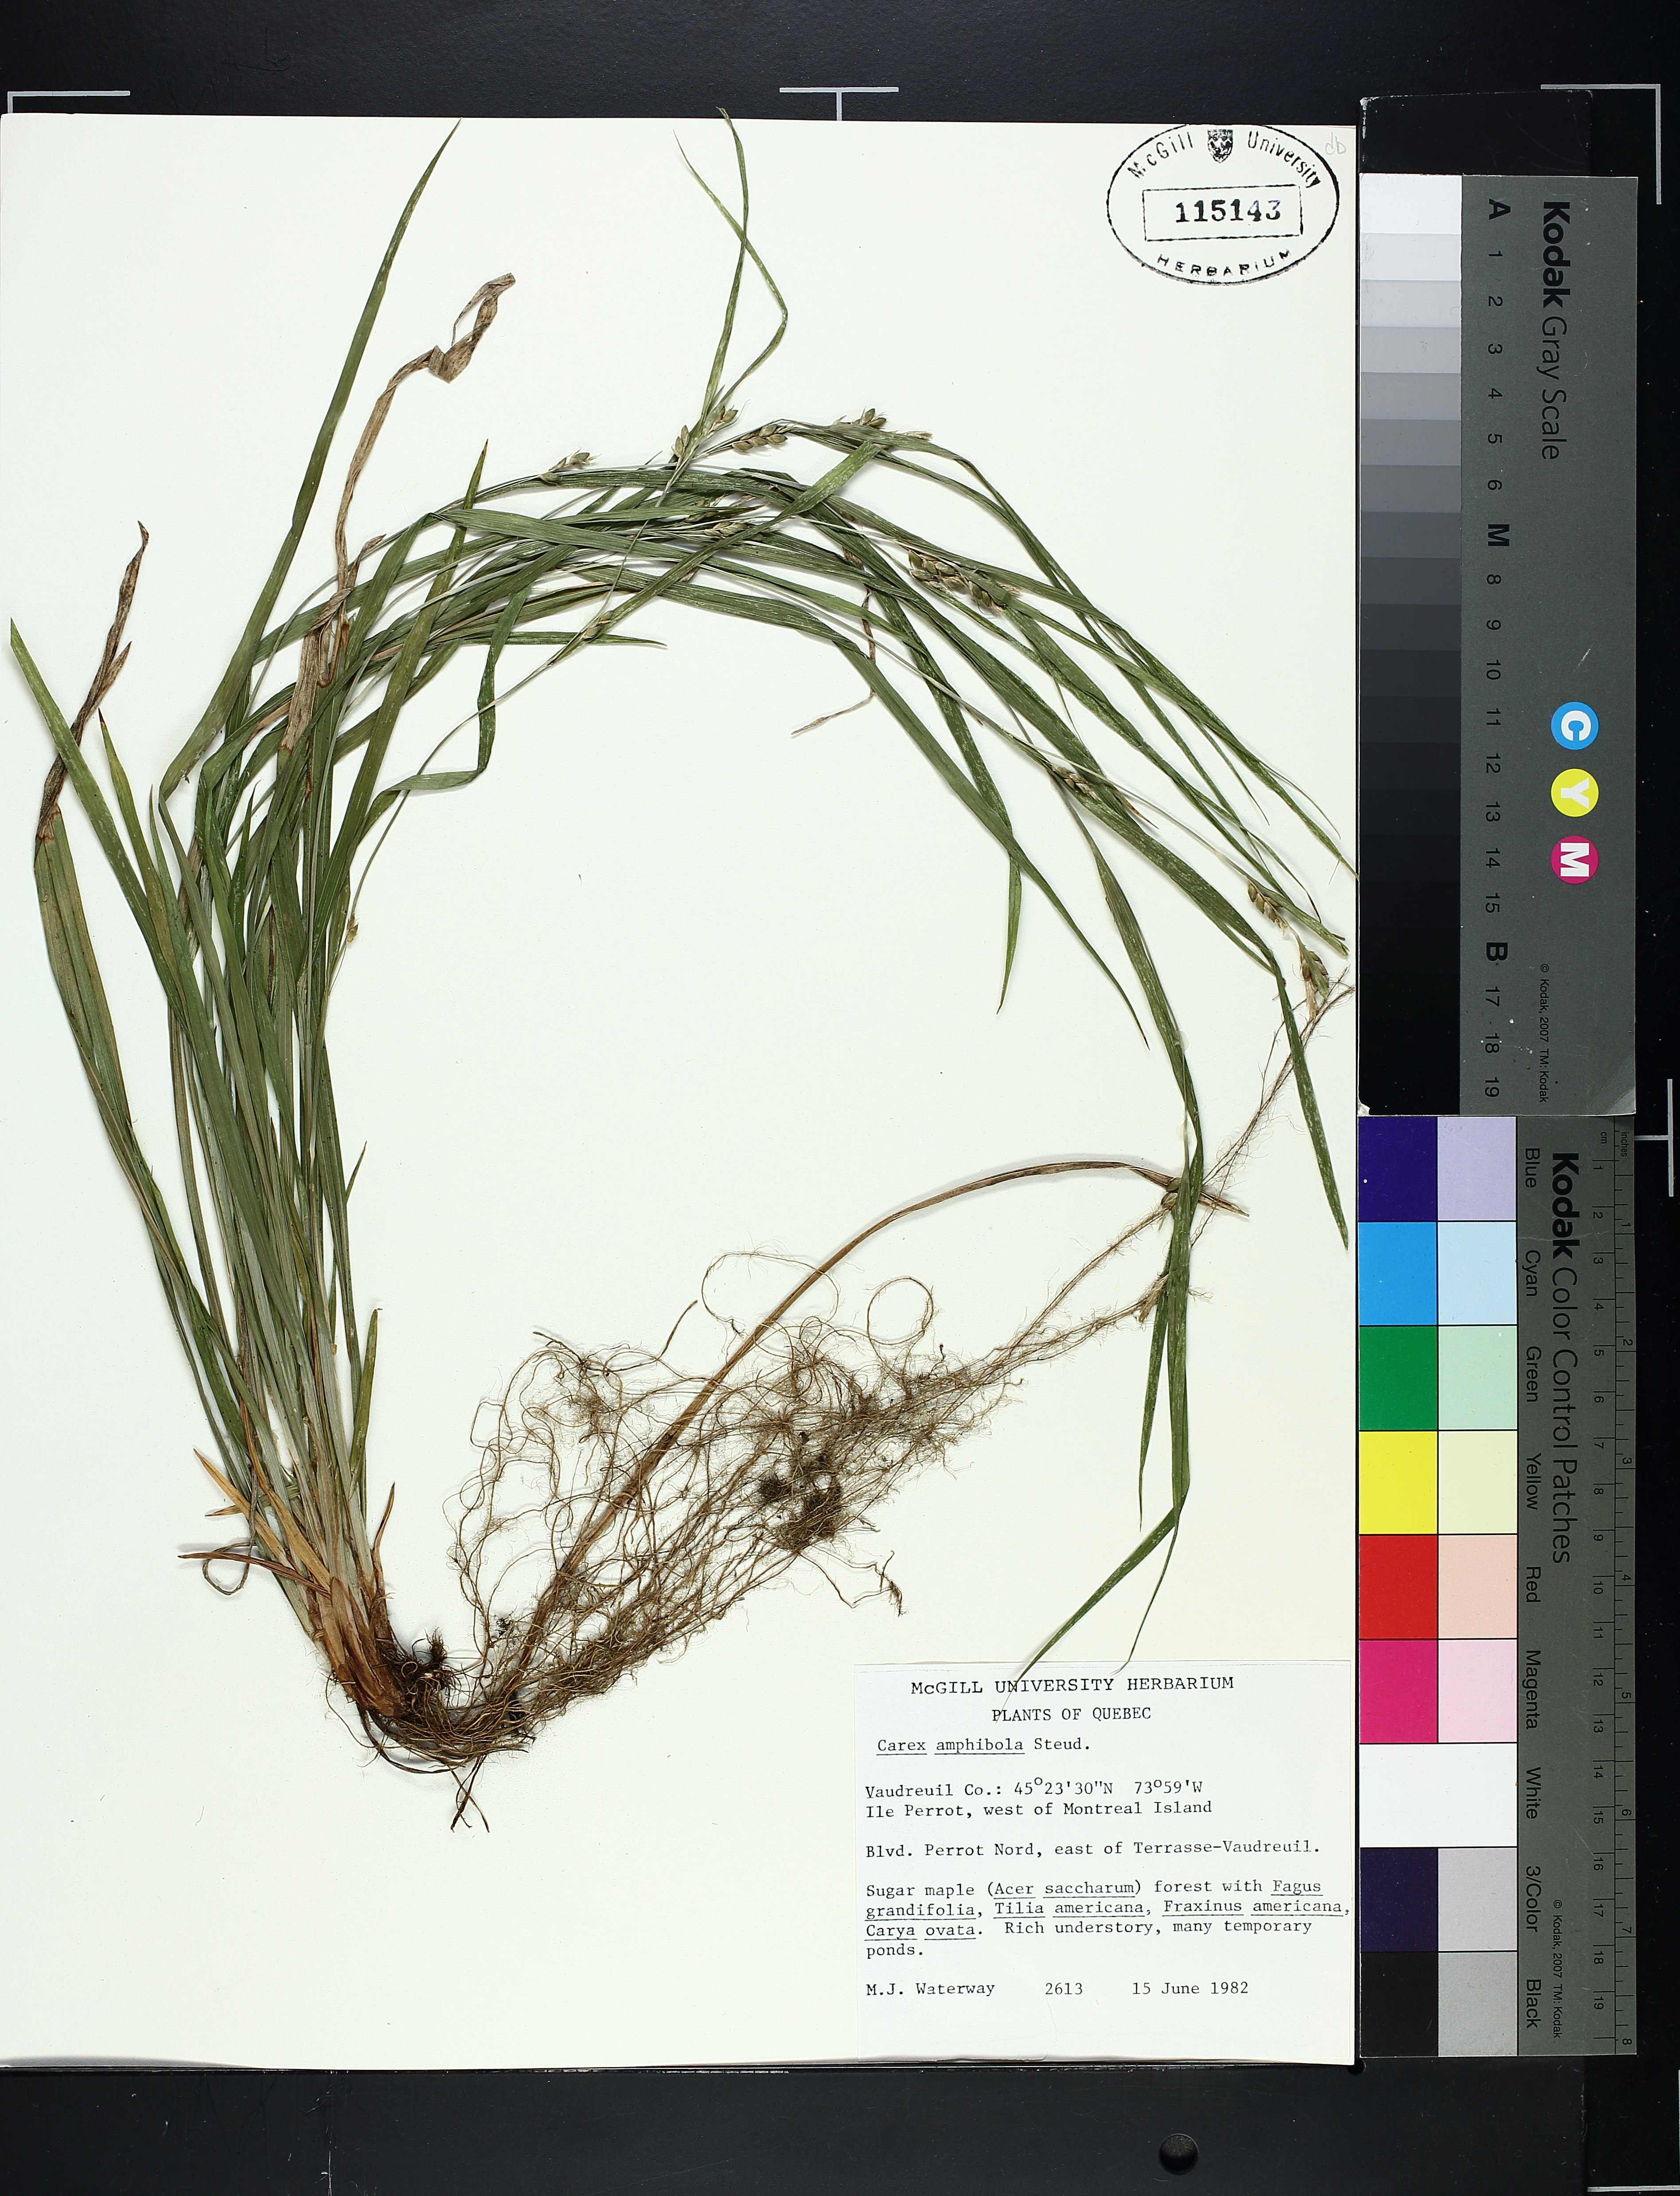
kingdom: Plantae
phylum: Tracheophyta
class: Liliopsida
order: Poales
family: Cyperaceae
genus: Carex
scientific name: Carex amphibola
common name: Amphibious sedge
